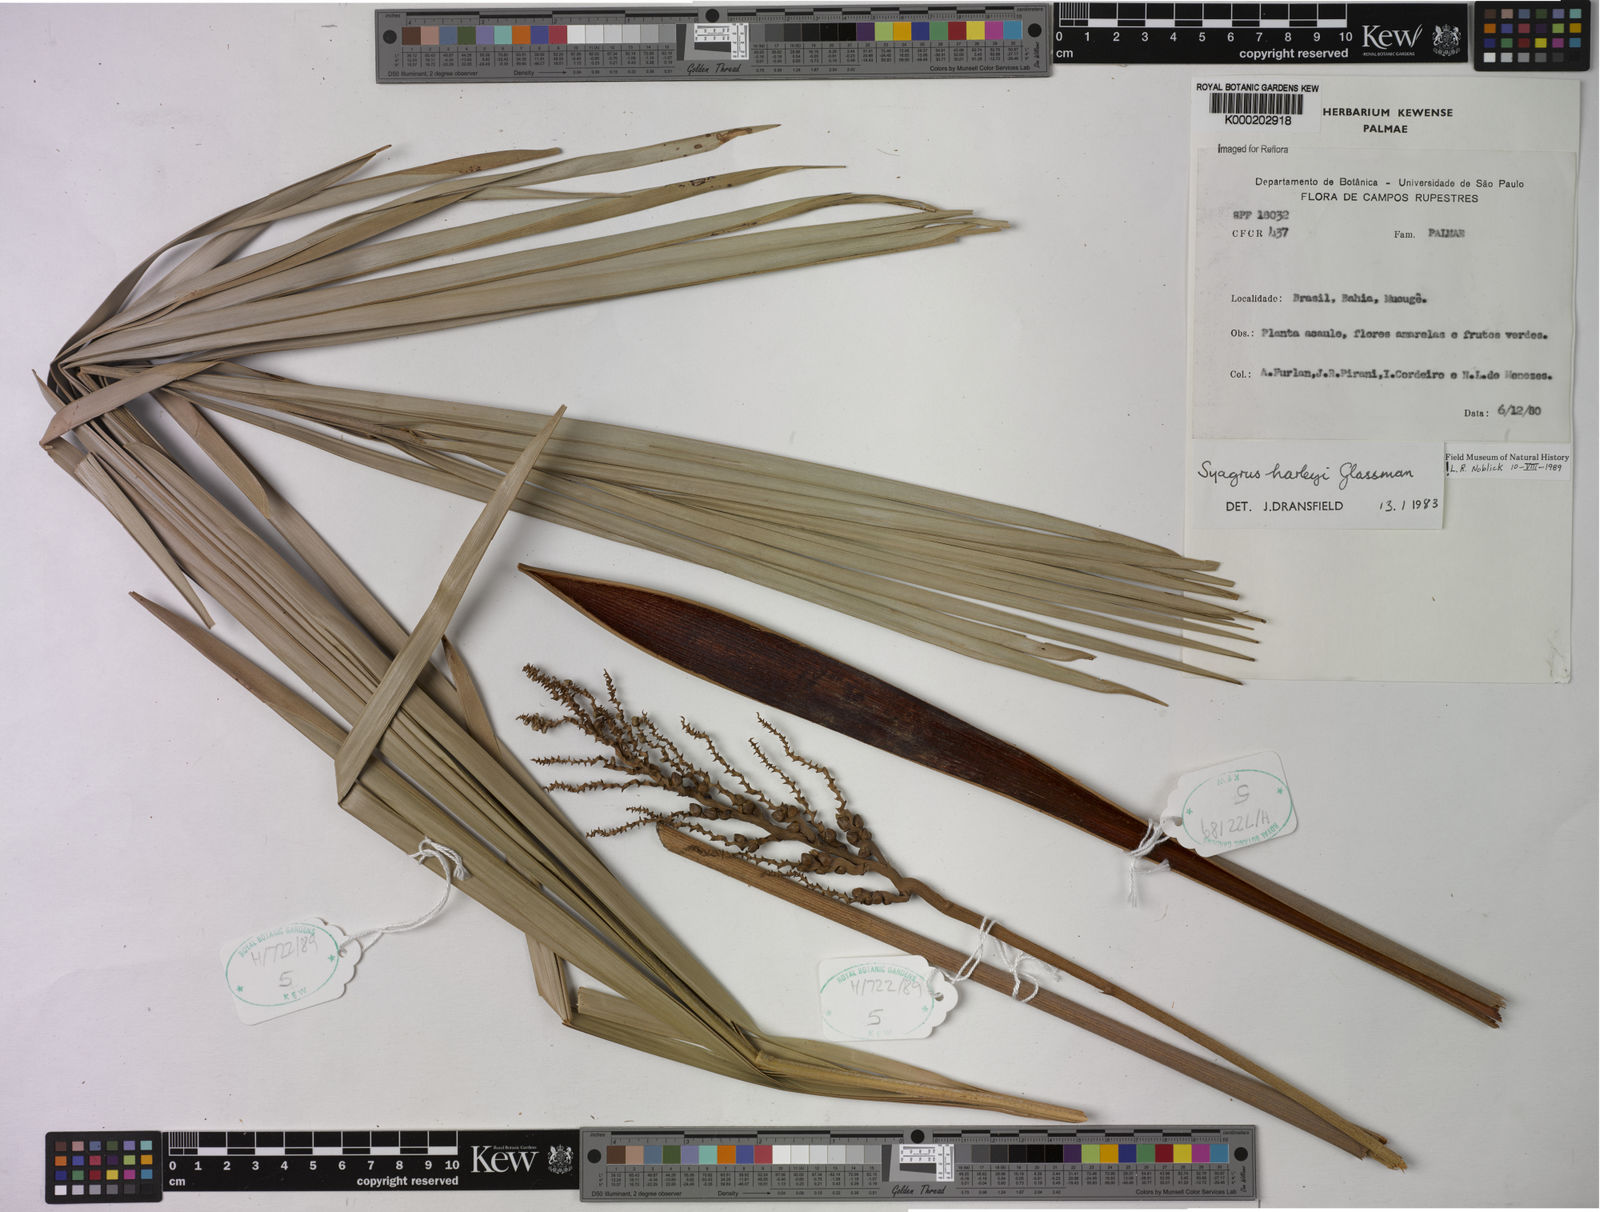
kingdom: Plantae
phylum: Tracheophyta
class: Liliopsida
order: Arecales
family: Arecaceae
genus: Syagrus
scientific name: Syagrus harleyi
